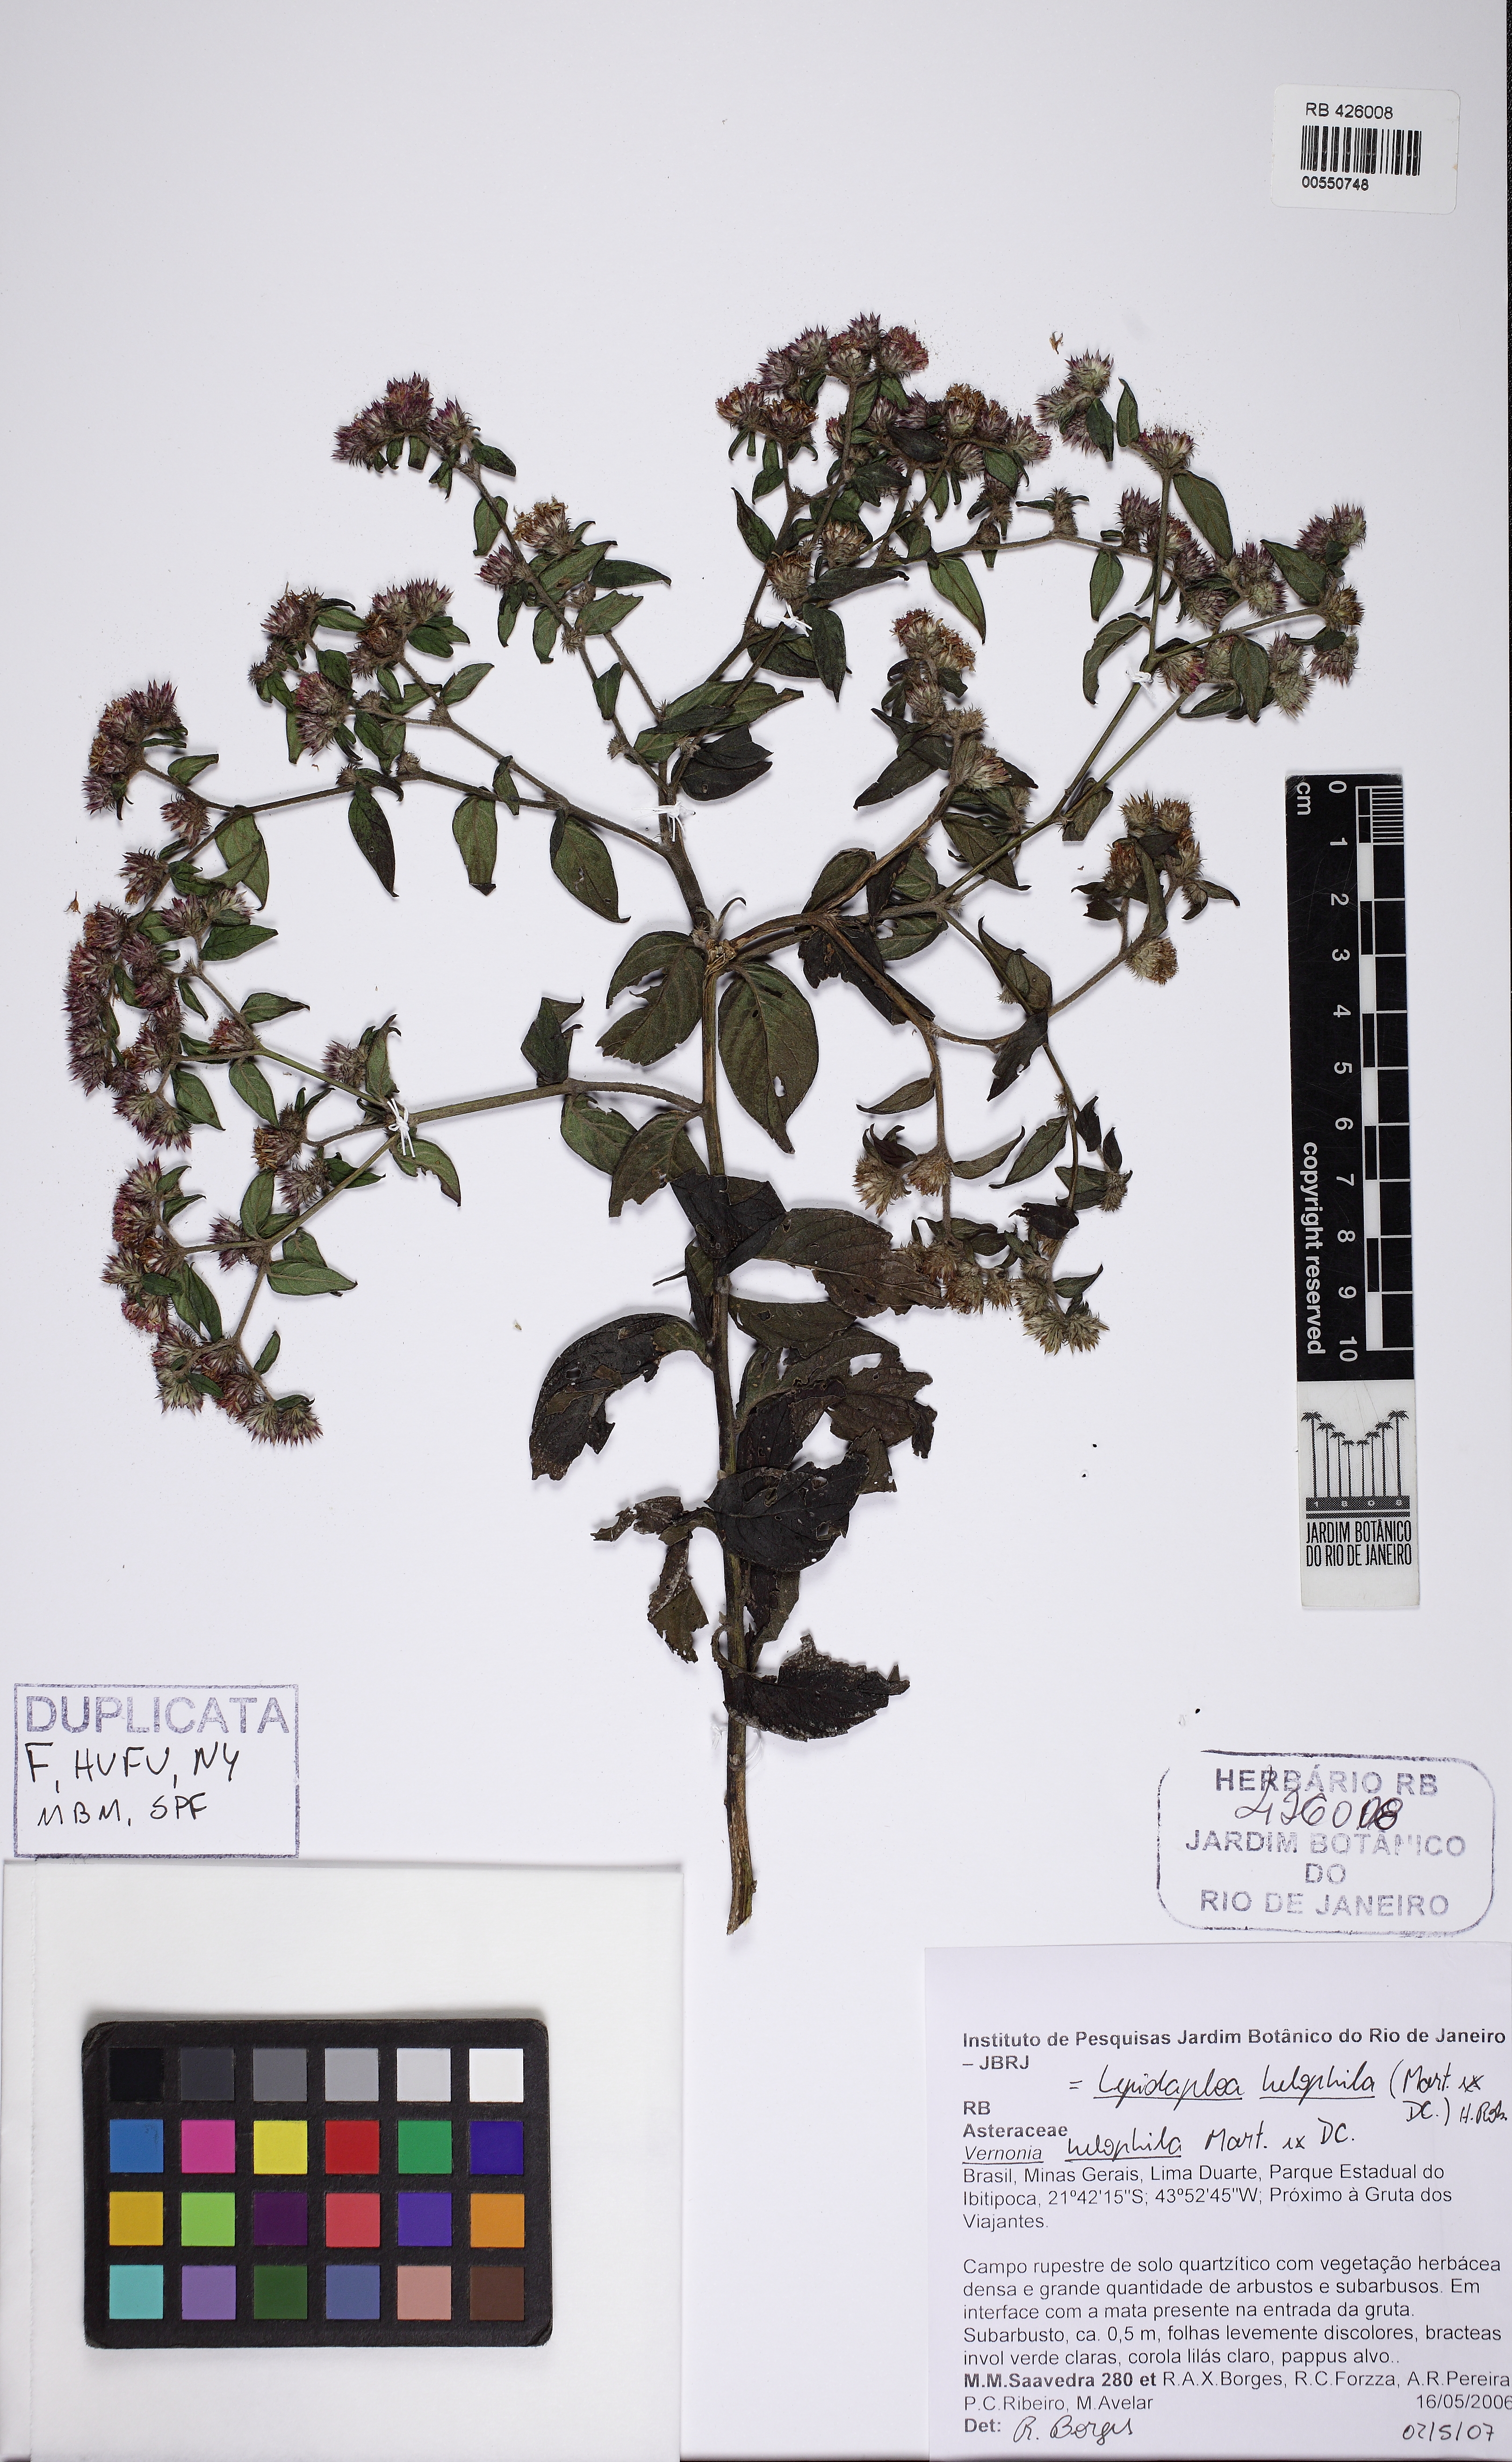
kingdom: Plantae
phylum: Tracheophyta
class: Magnoliopsida
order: Asterales
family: Asteraceae
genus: Lepidaploa
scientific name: Lepidaploa helophila
